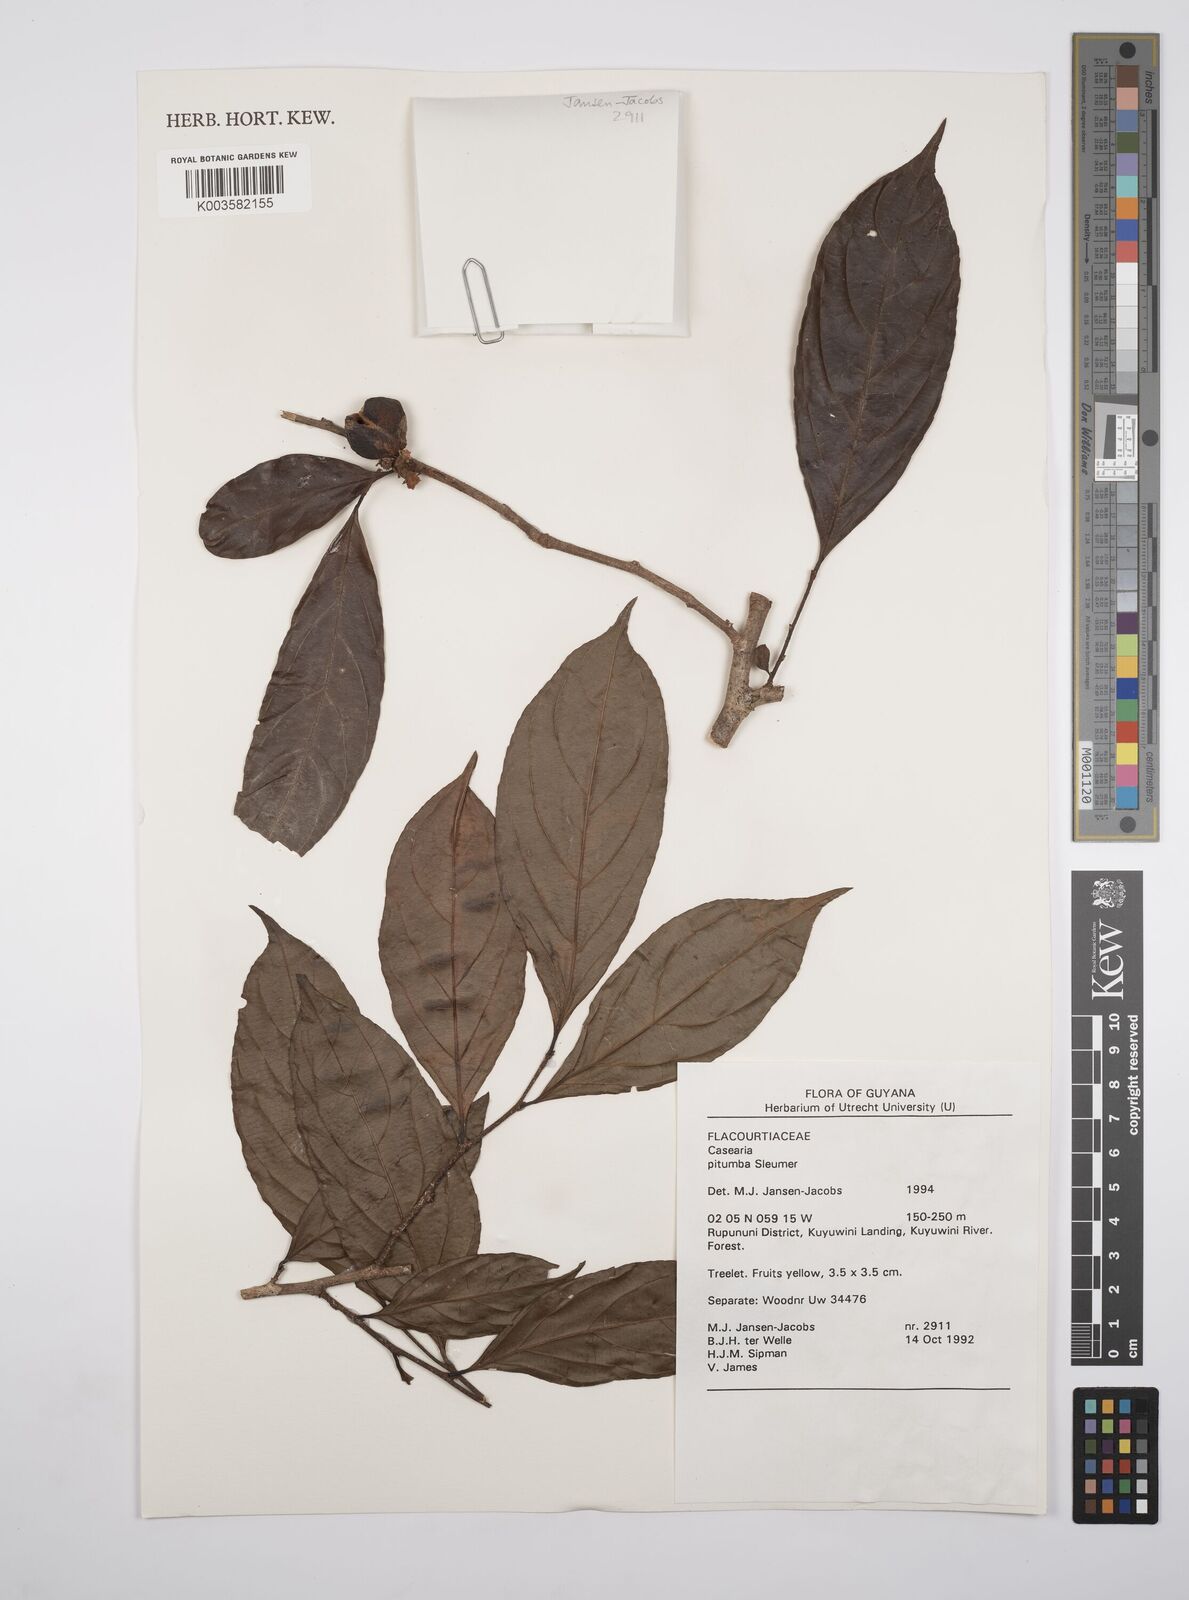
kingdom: Plantae
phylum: Tracheophyta
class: Magnoliopsida
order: Malpighiales
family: Salicaceae
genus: Casearia
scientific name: Casearia pitumba
